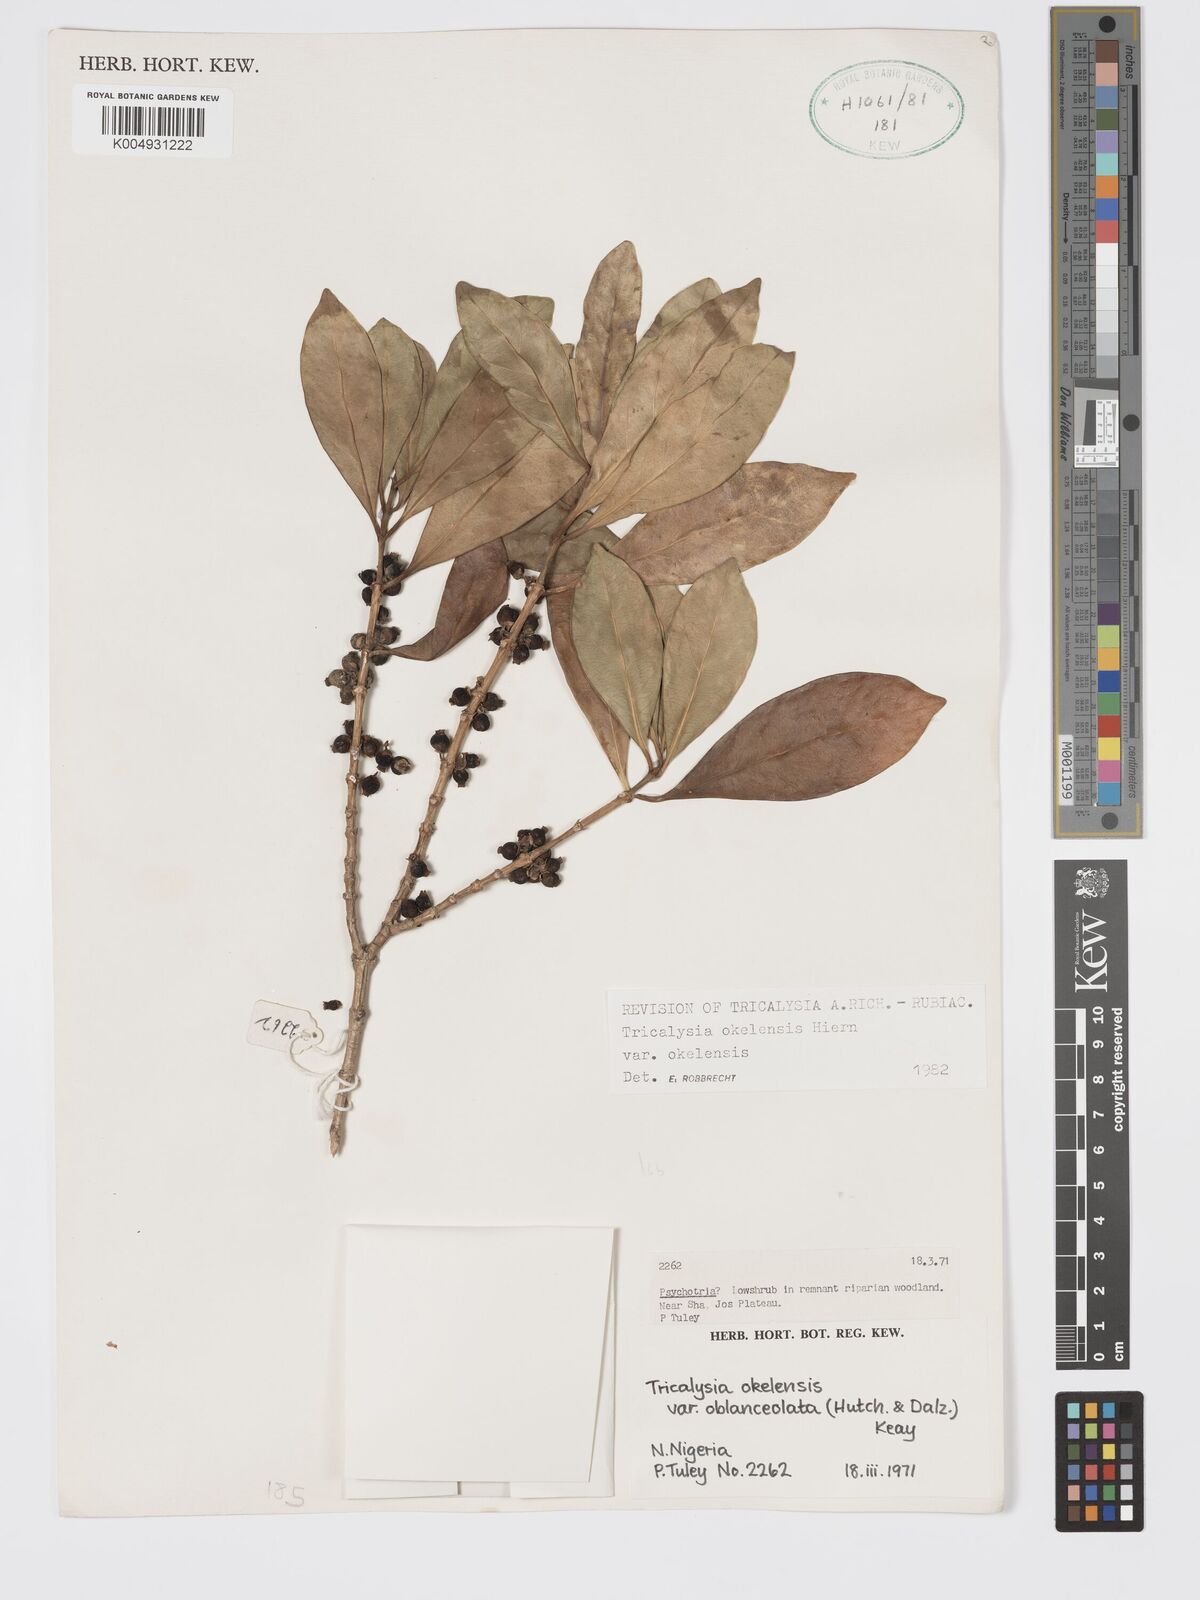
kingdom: Plantae
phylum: Tracheophyta
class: Magnoliopsida
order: Gentianales
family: Rubiaceae
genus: Tricalysia
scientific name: Tricalysia okelensis
